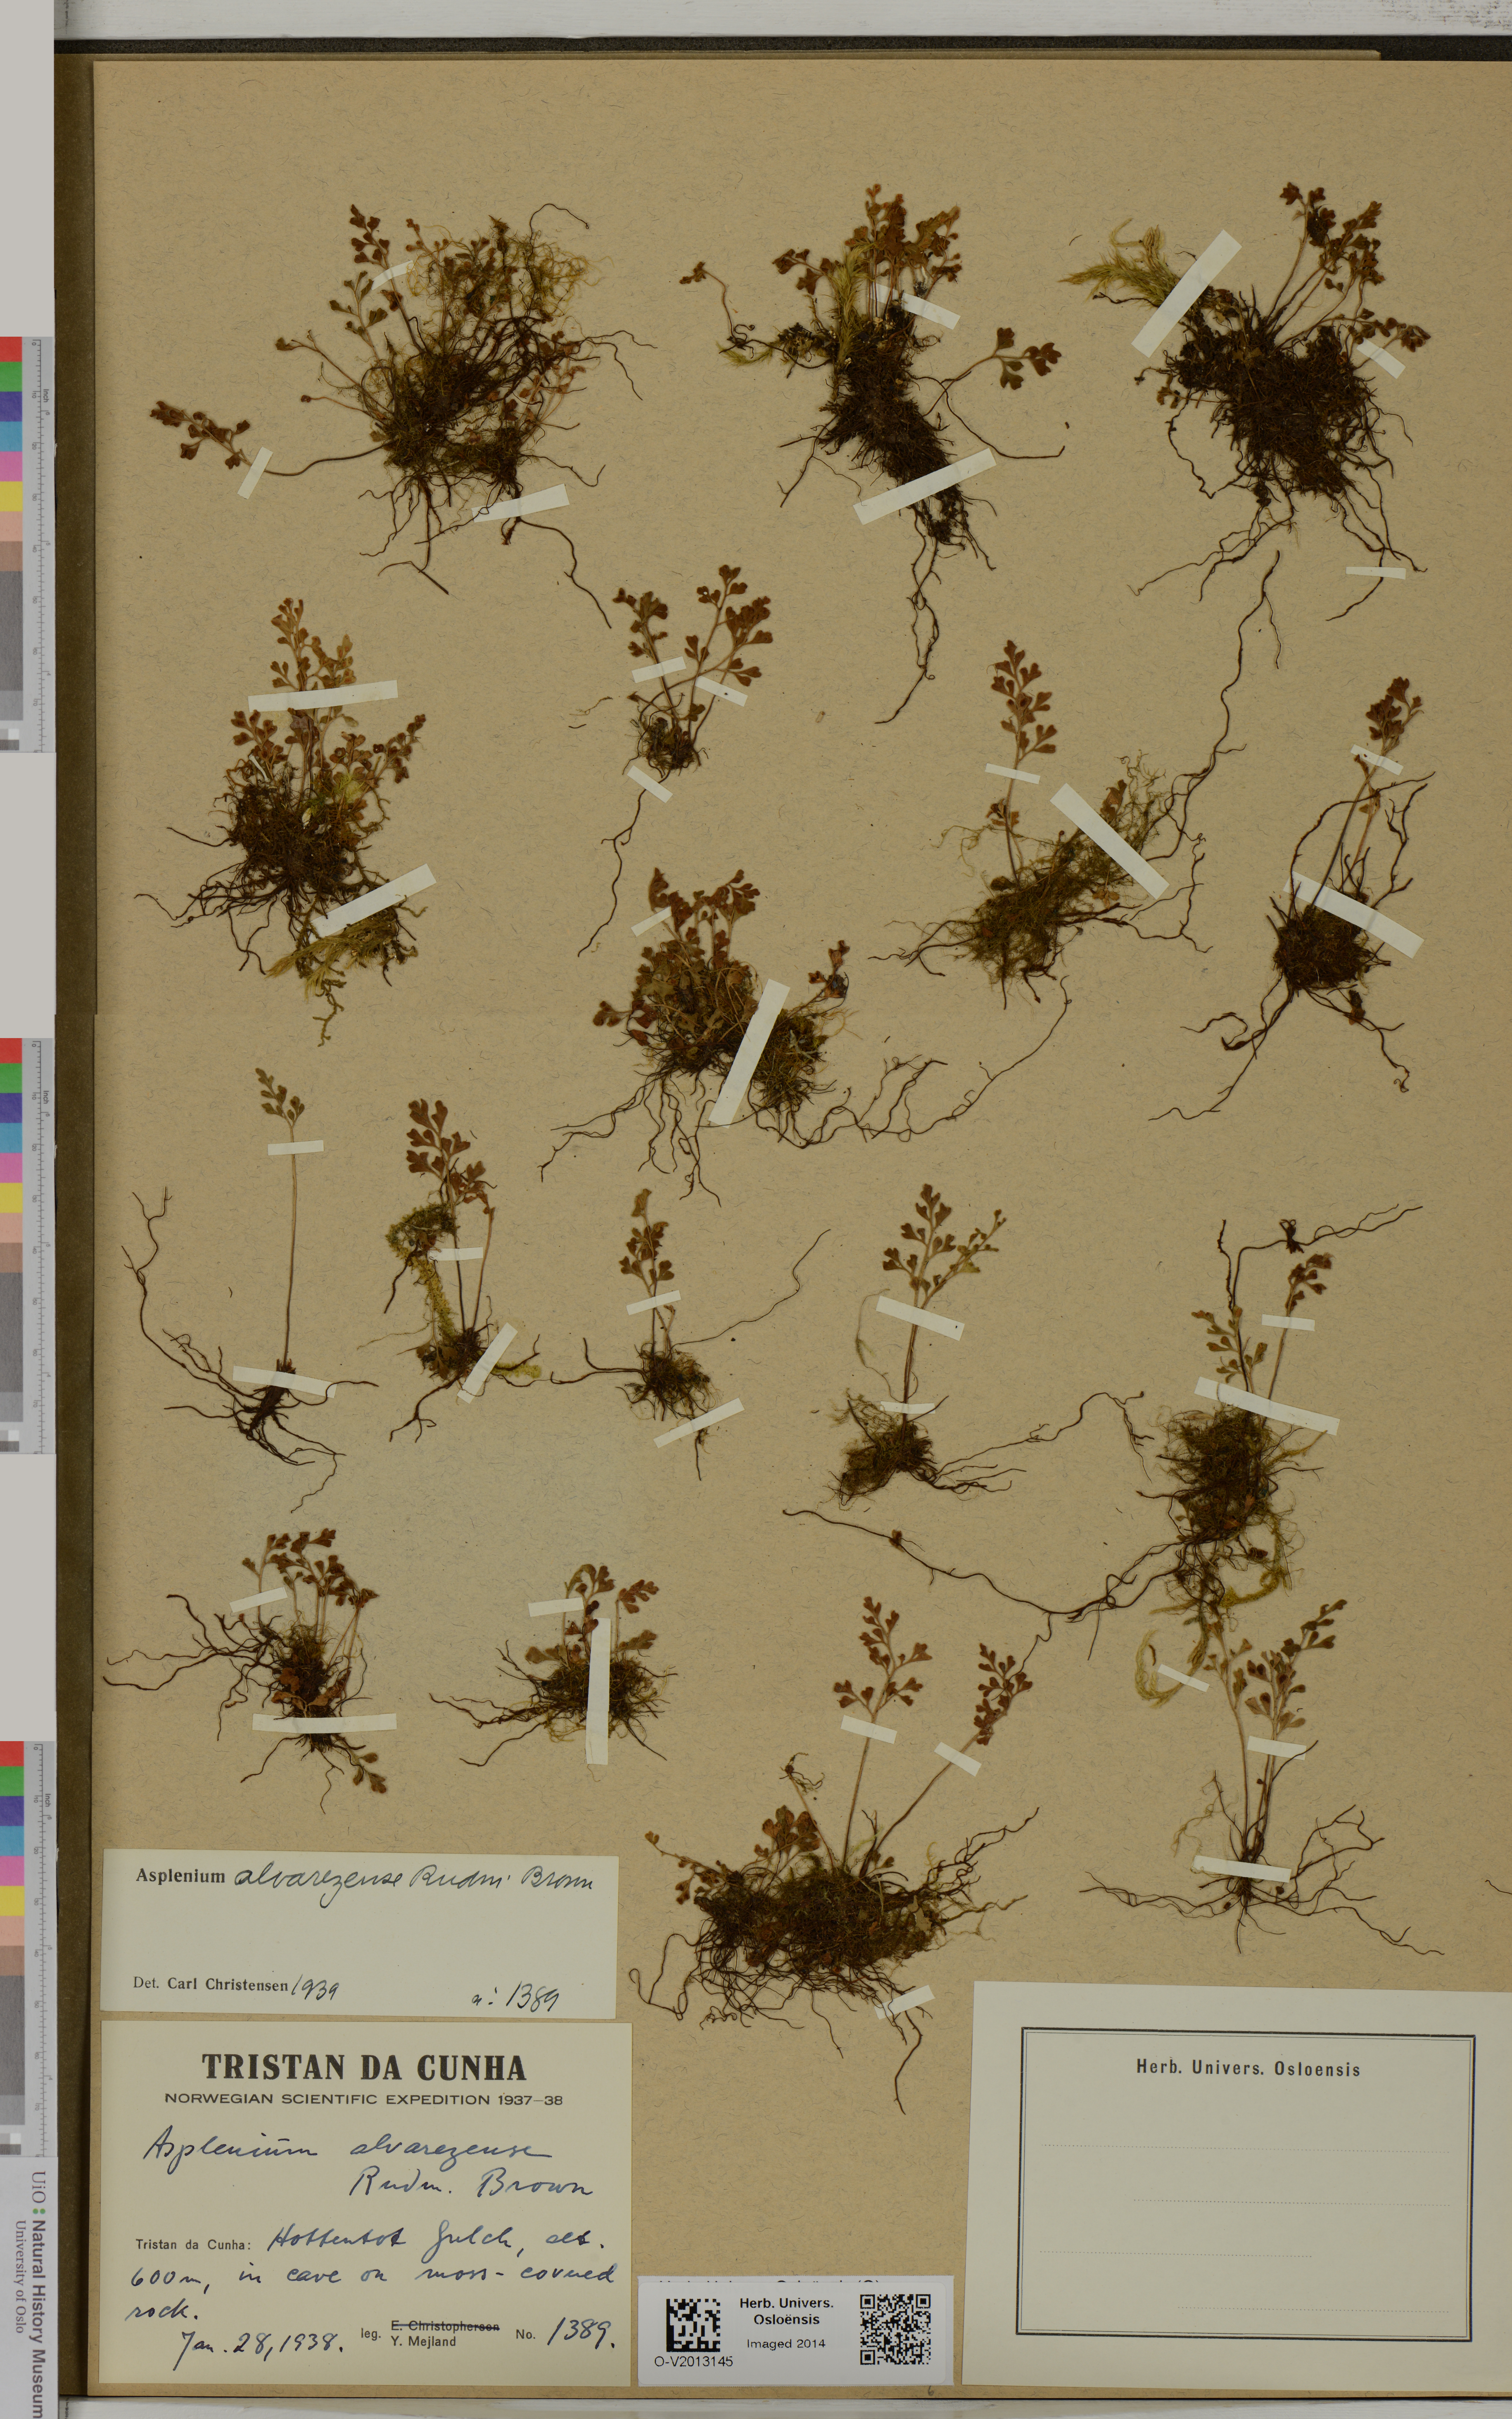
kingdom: Plantae
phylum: Tracheophyta
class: Polypodiopsida
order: Polypodiales
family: Aspleniaceae
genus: Asplenium
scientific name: Asplenium alvarezense
